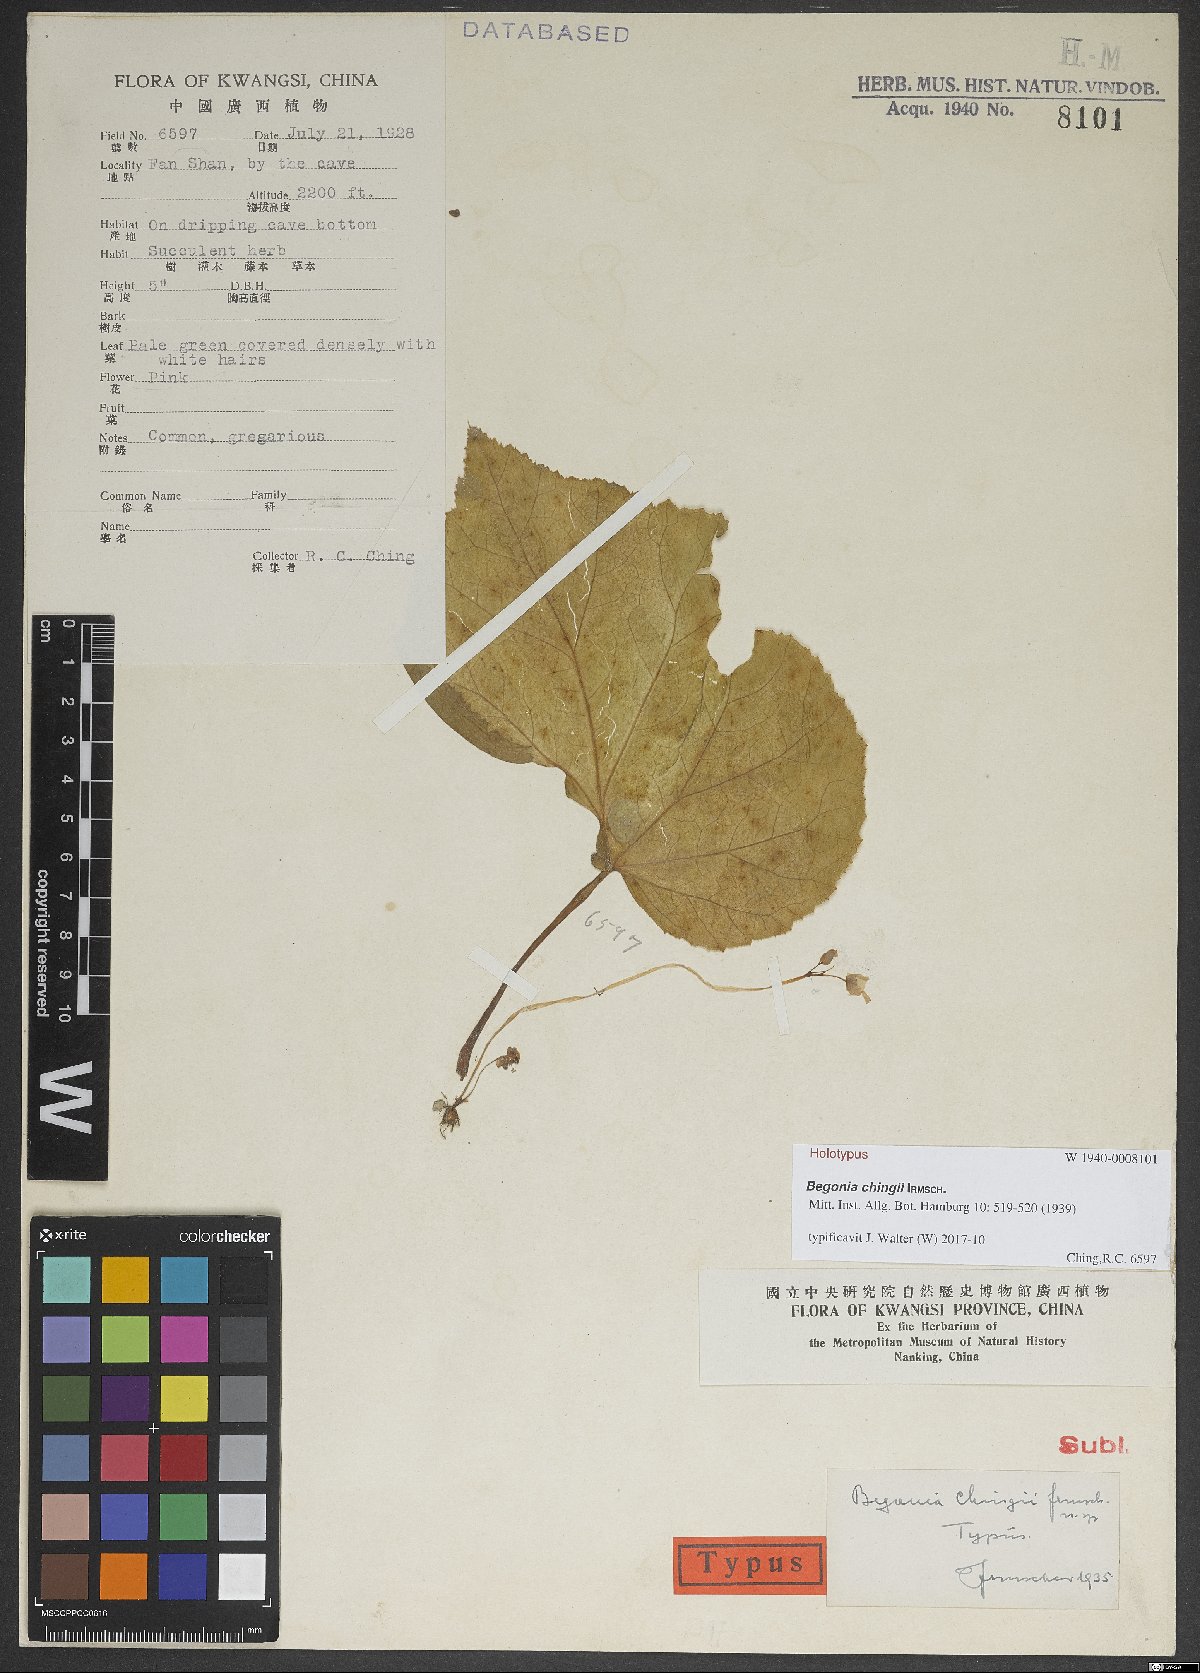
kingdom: Plantae
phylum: Tracheophyta
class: Magnoliopsida
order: Cucurbitales
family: Begoniaceae
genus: Begonia
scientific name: Begonia chingii
